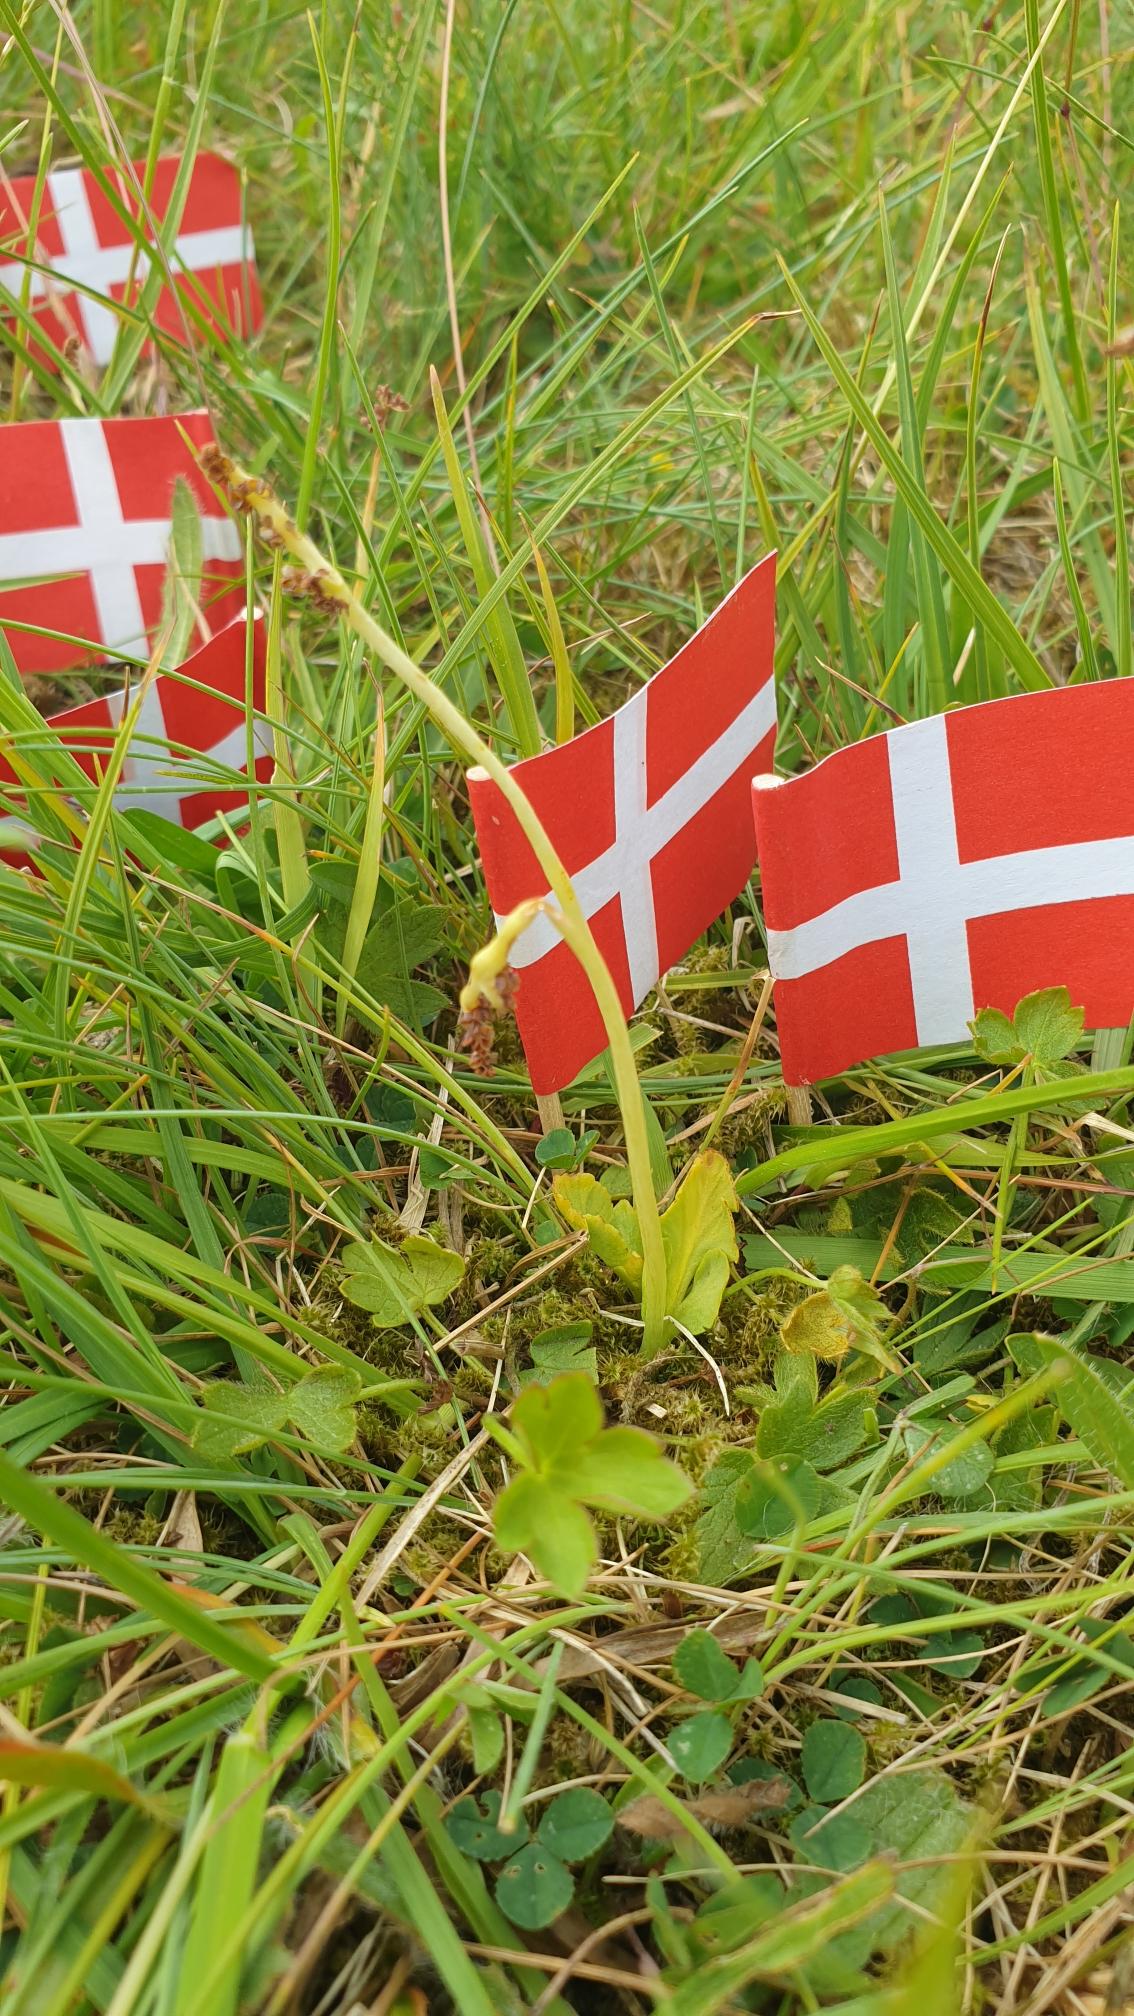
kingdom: Plantae
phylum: Tracheophyta
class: Polypodiopsida
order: Ophioglossales
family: Ophioglossaceae
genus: Botrychium
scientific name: Botrychium simplex
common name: Enkelt månerude
